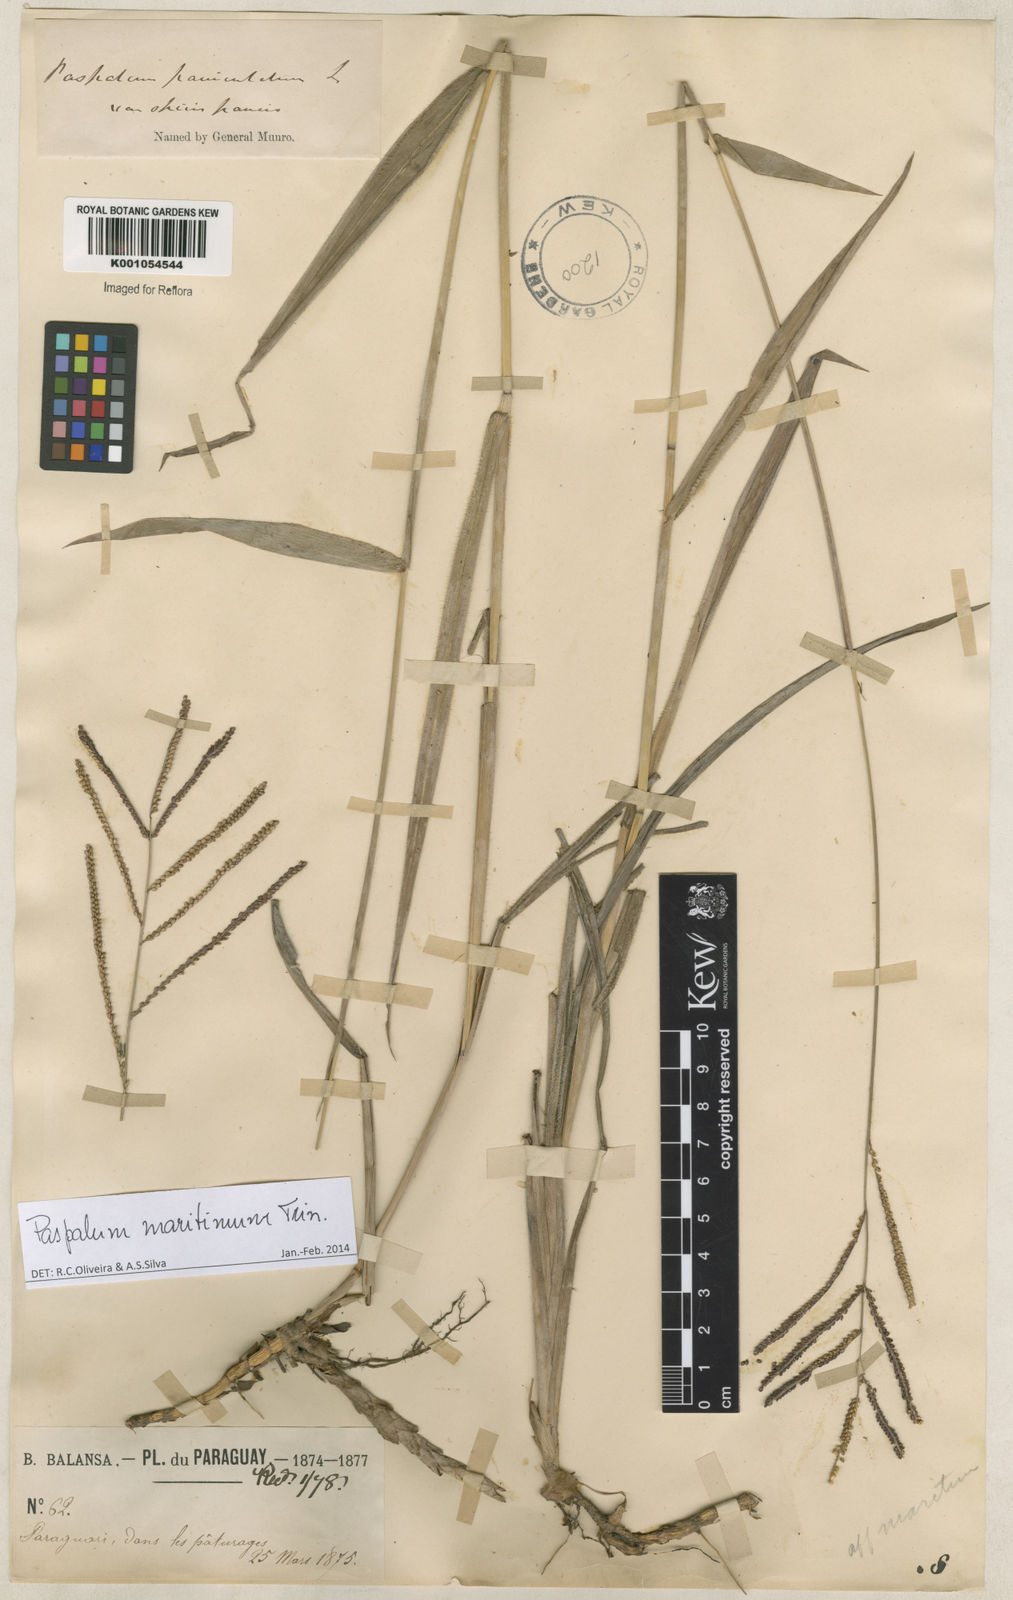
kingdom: Plantae
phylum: Tracheophyta
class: Liliopsida
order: Poales
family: Poaceae
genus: Paspalum
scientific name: Paspalum maritimum
